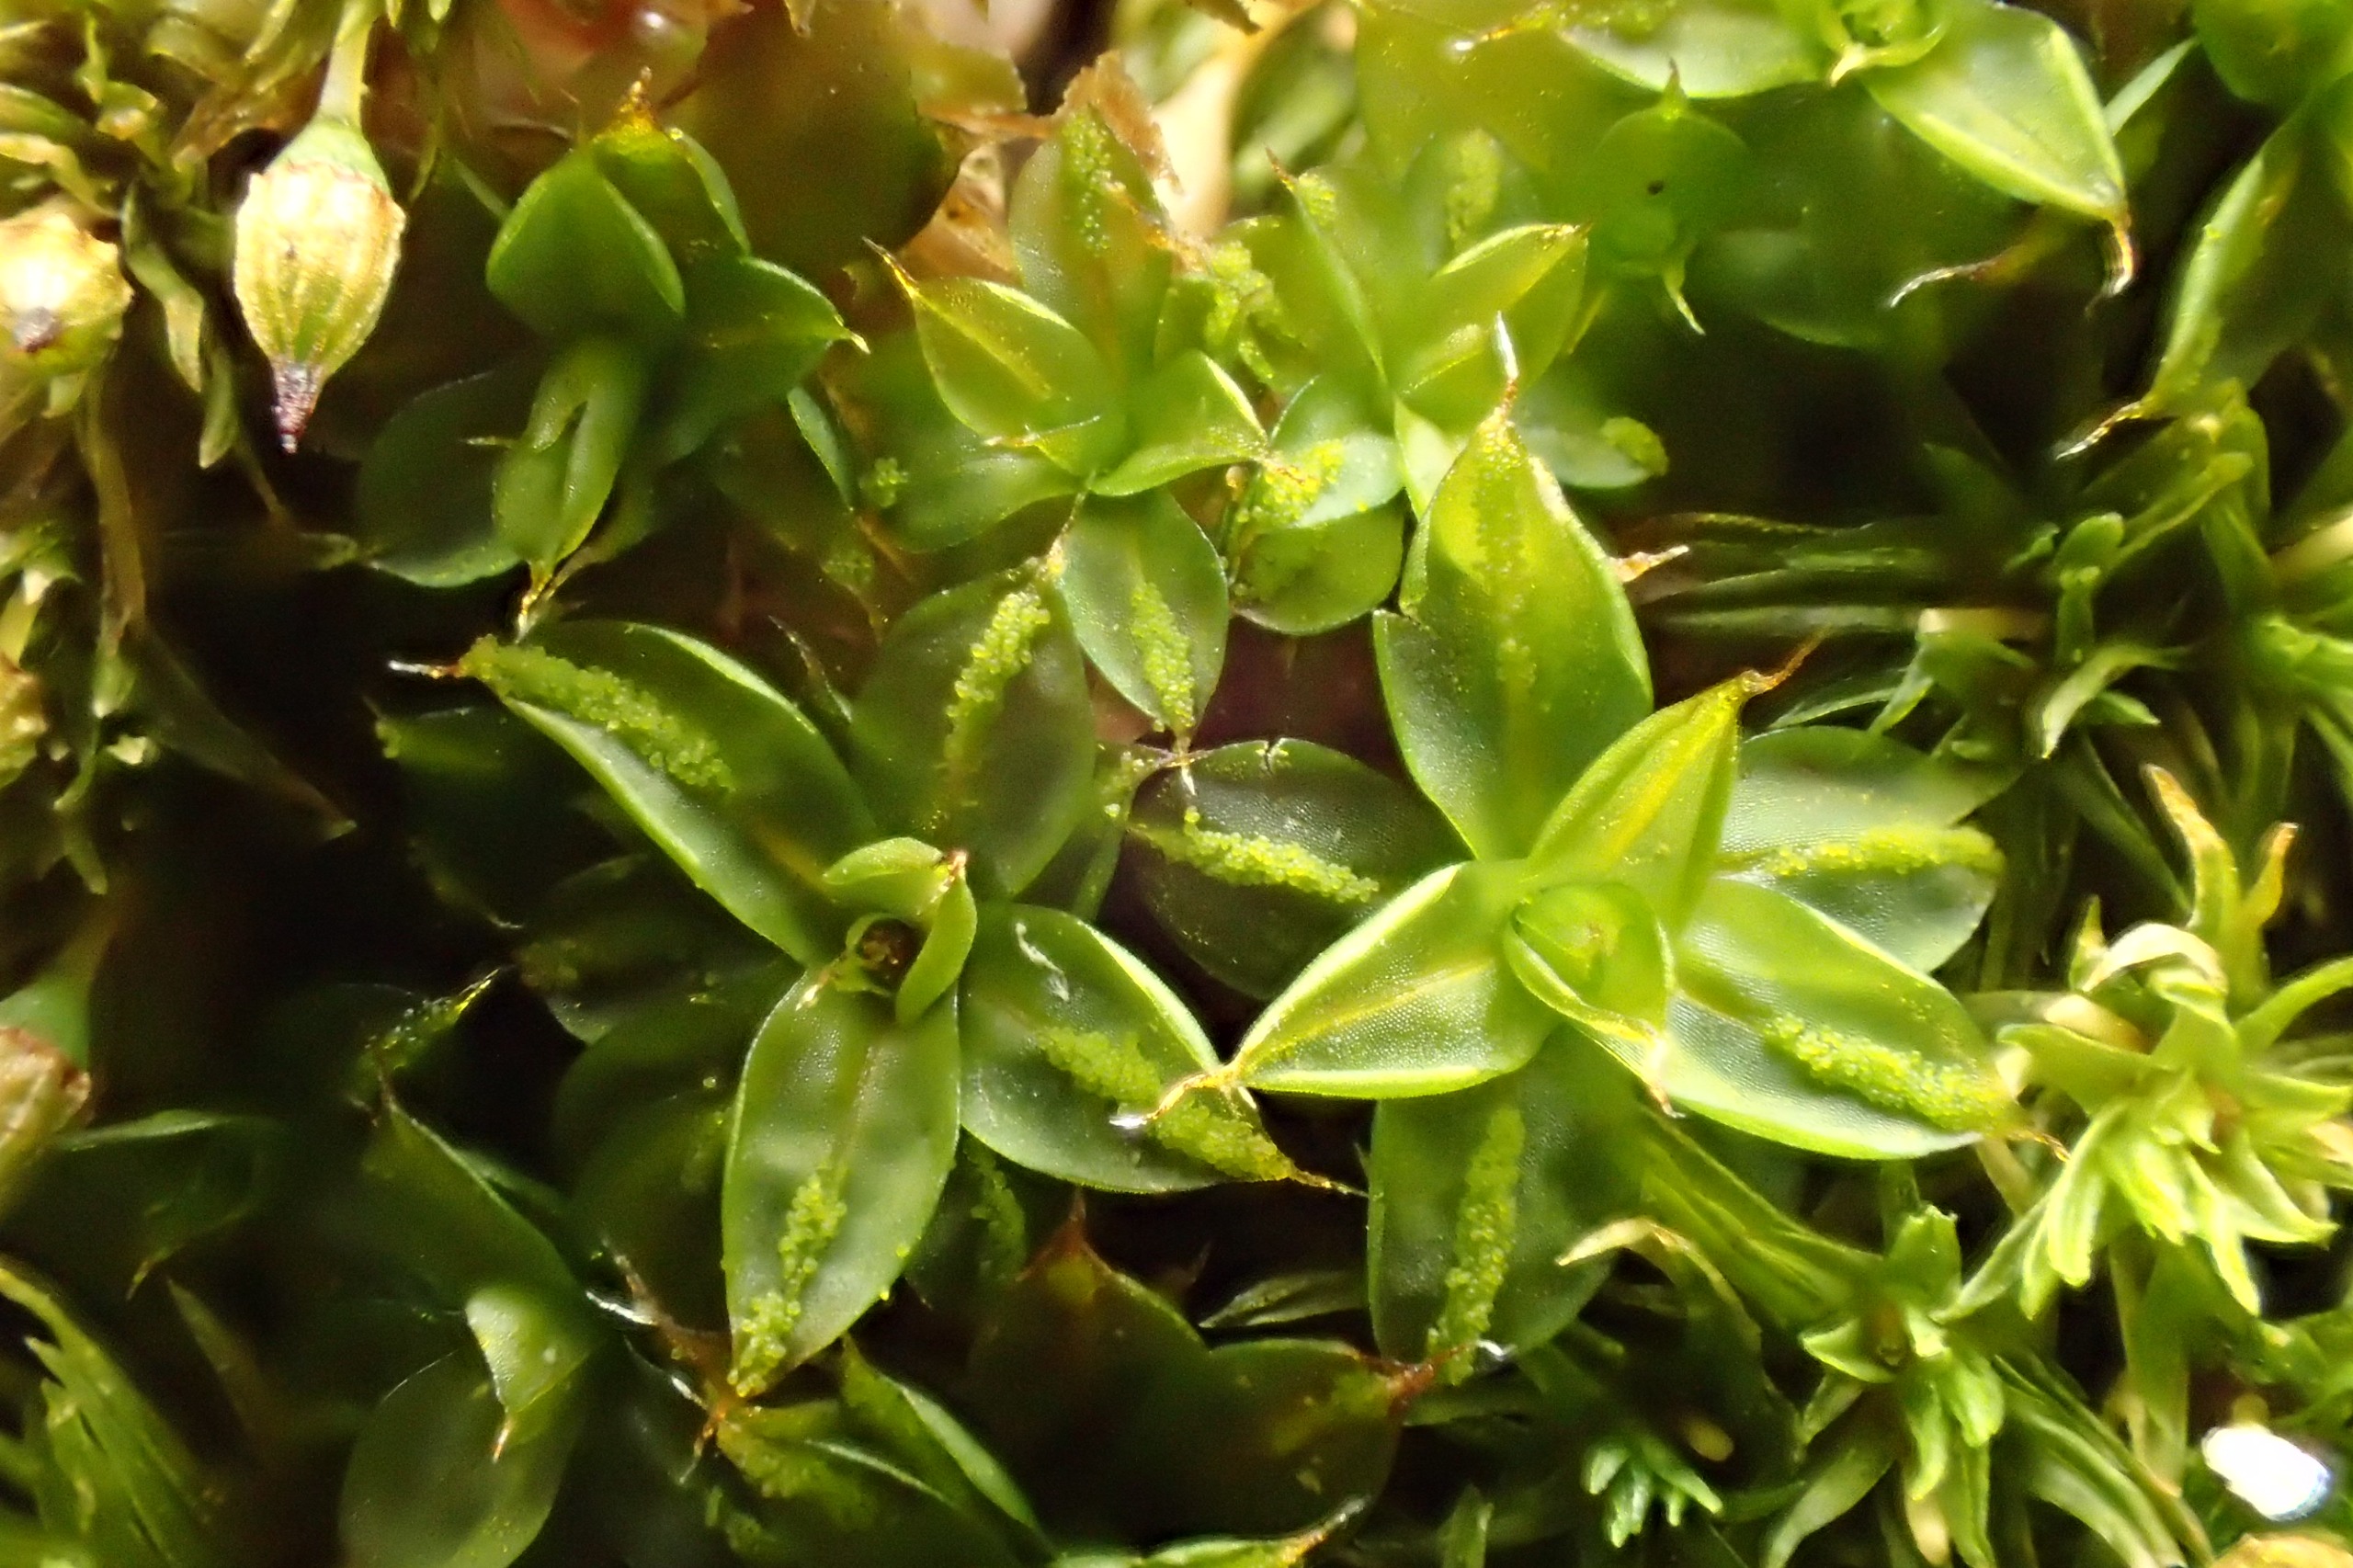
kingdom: Plantae
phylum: Bryophyta
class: Bryopsida
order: Pottiales
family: Pottiaceae
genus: Syntrichia
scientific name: Syntrichia papillosa
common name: Bark-hårstjerne
